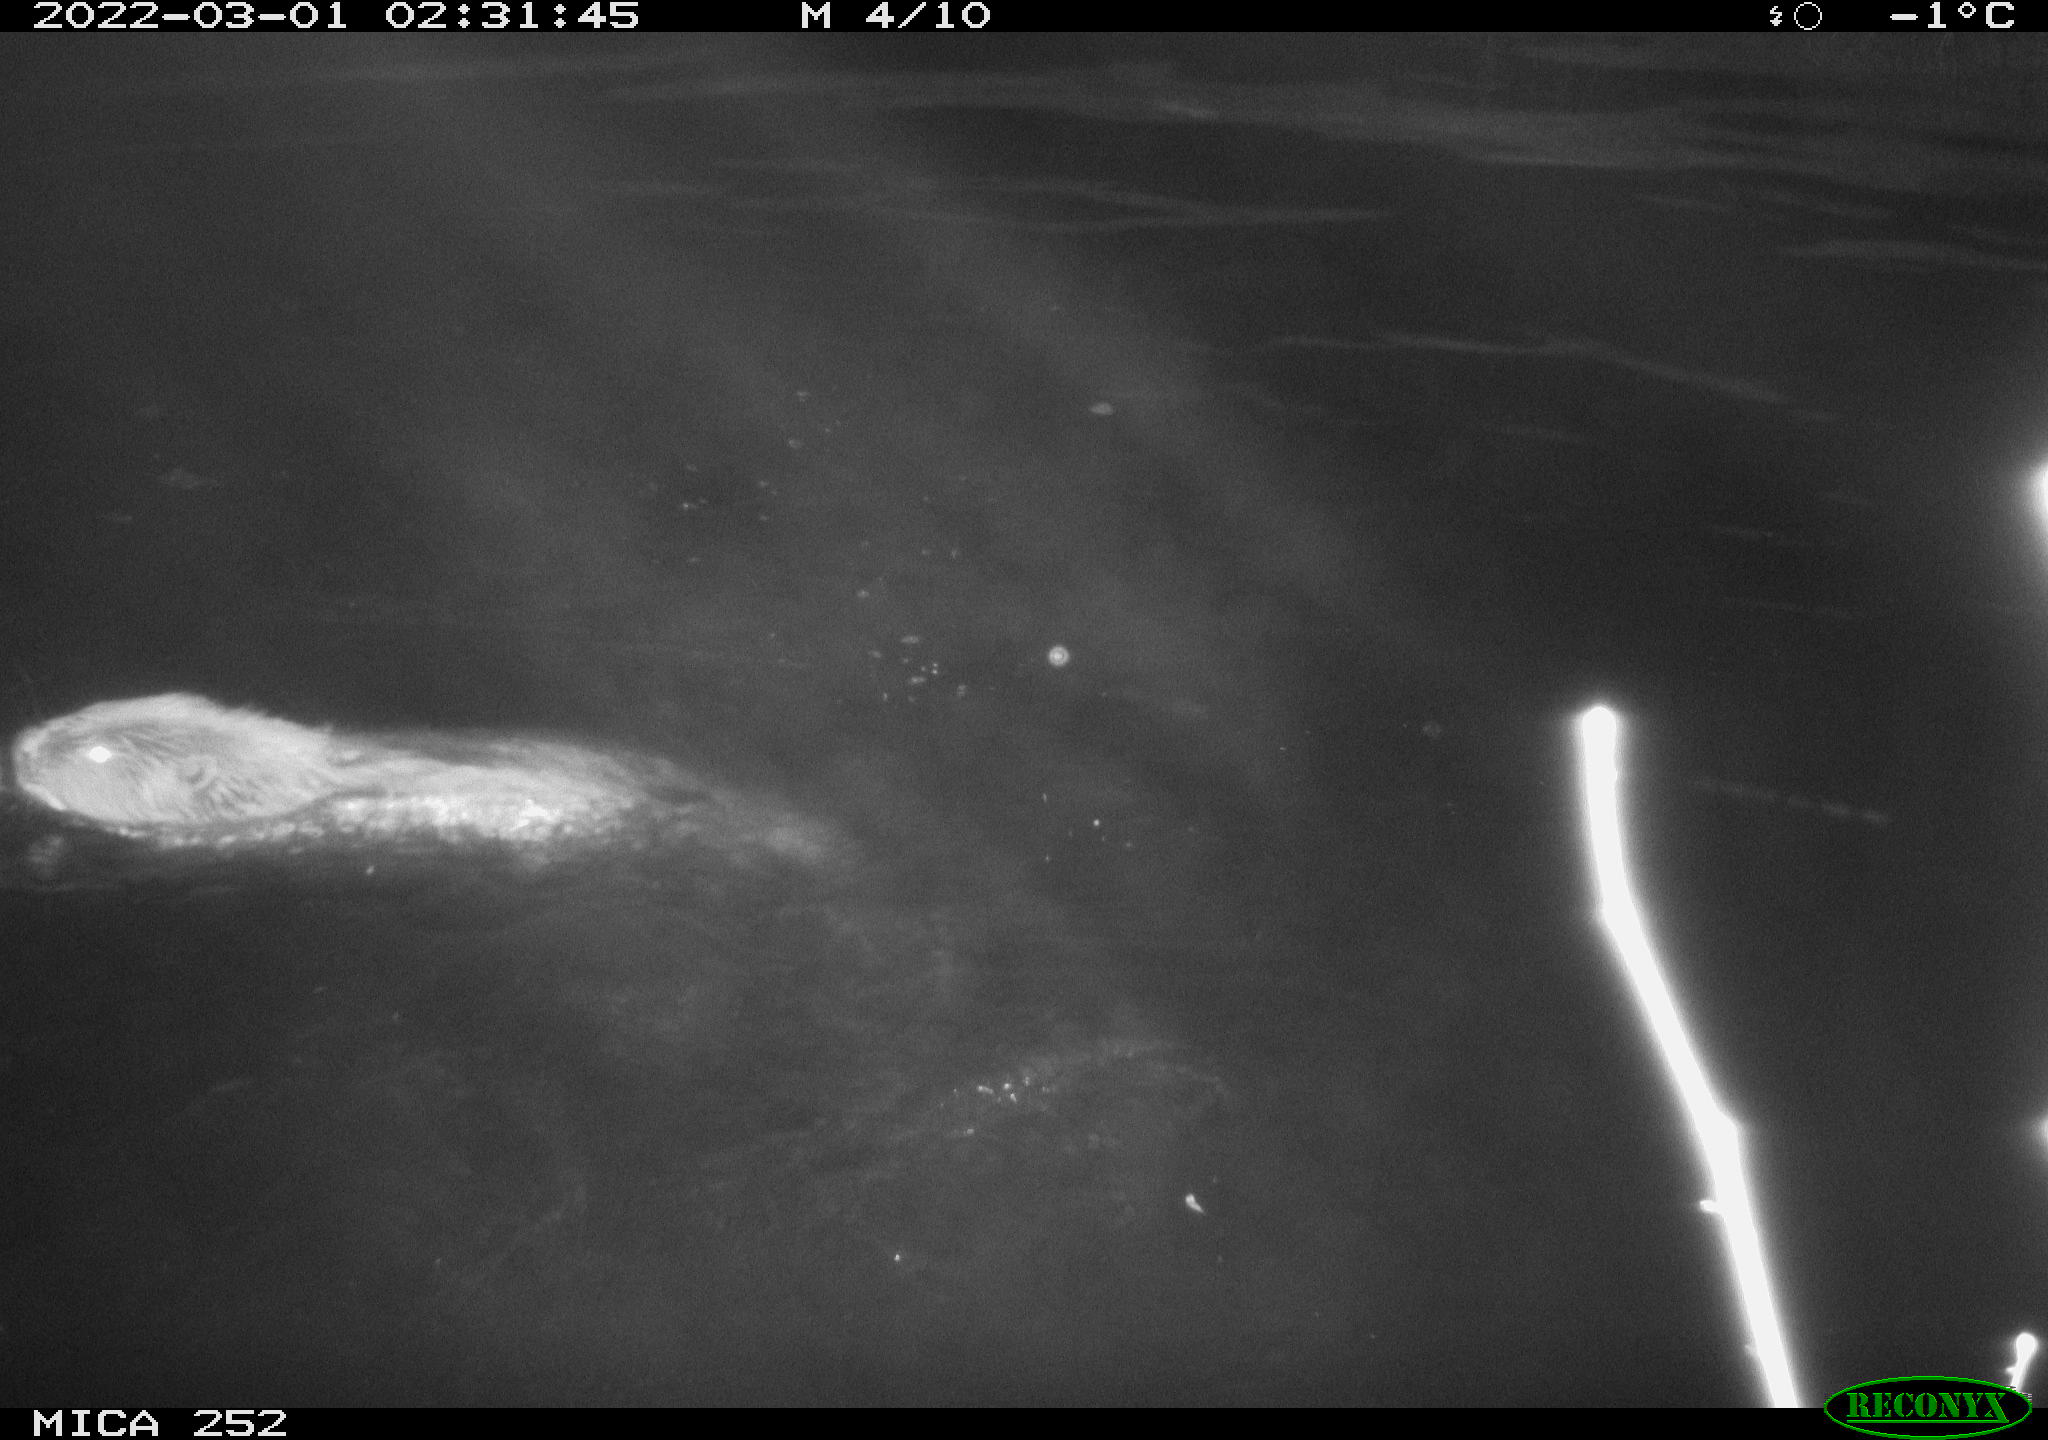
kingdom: Animalia
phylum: Chordata
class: Mammalia
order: Rodentia
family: Castoridae
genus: Castor
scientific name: Castor fiber
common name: Eurasian beaver
